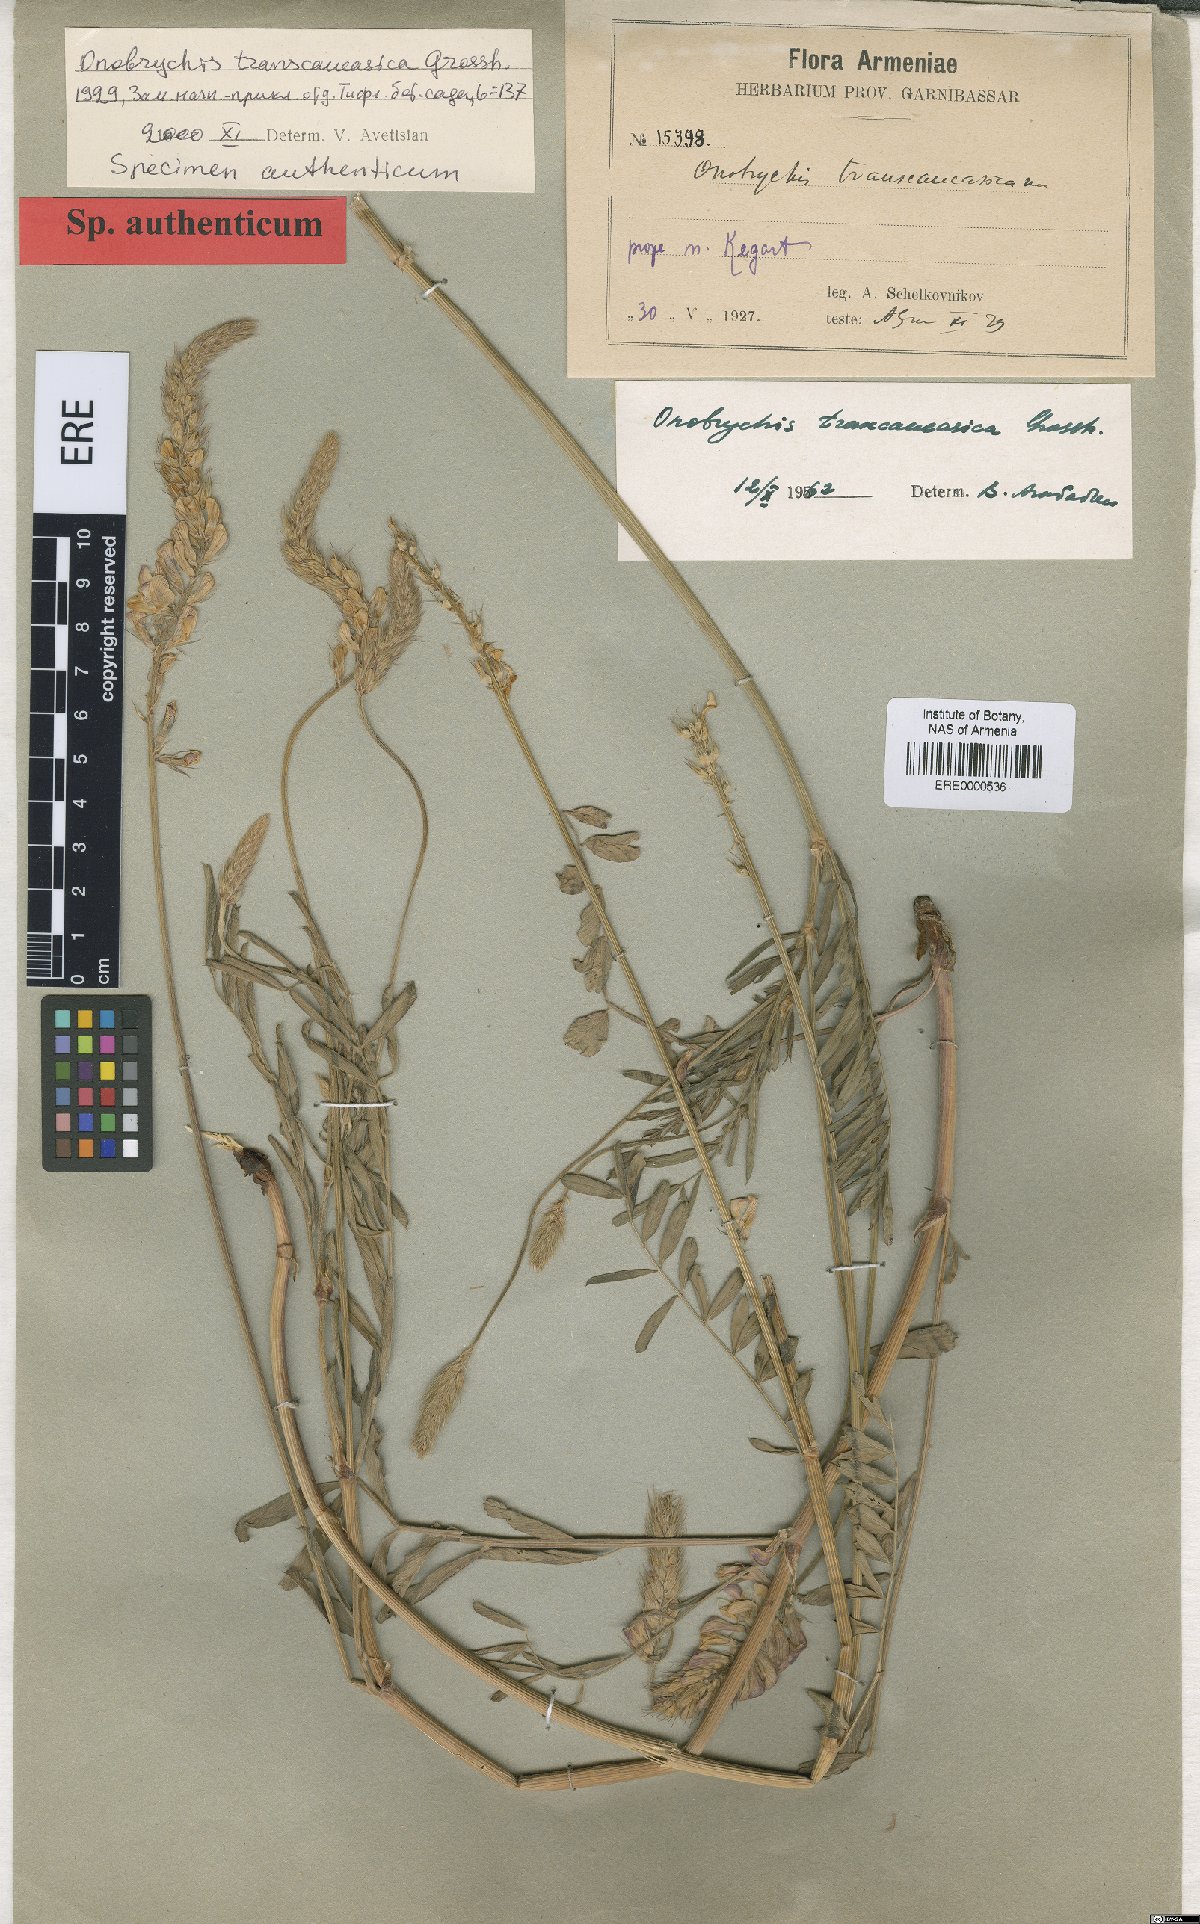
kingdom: Plantae
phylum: Tracheophyta
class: Magnoliopsida
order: Fabales
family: Fabaceae
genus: Onobrychis
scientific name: Onobrychis transcaucasica
